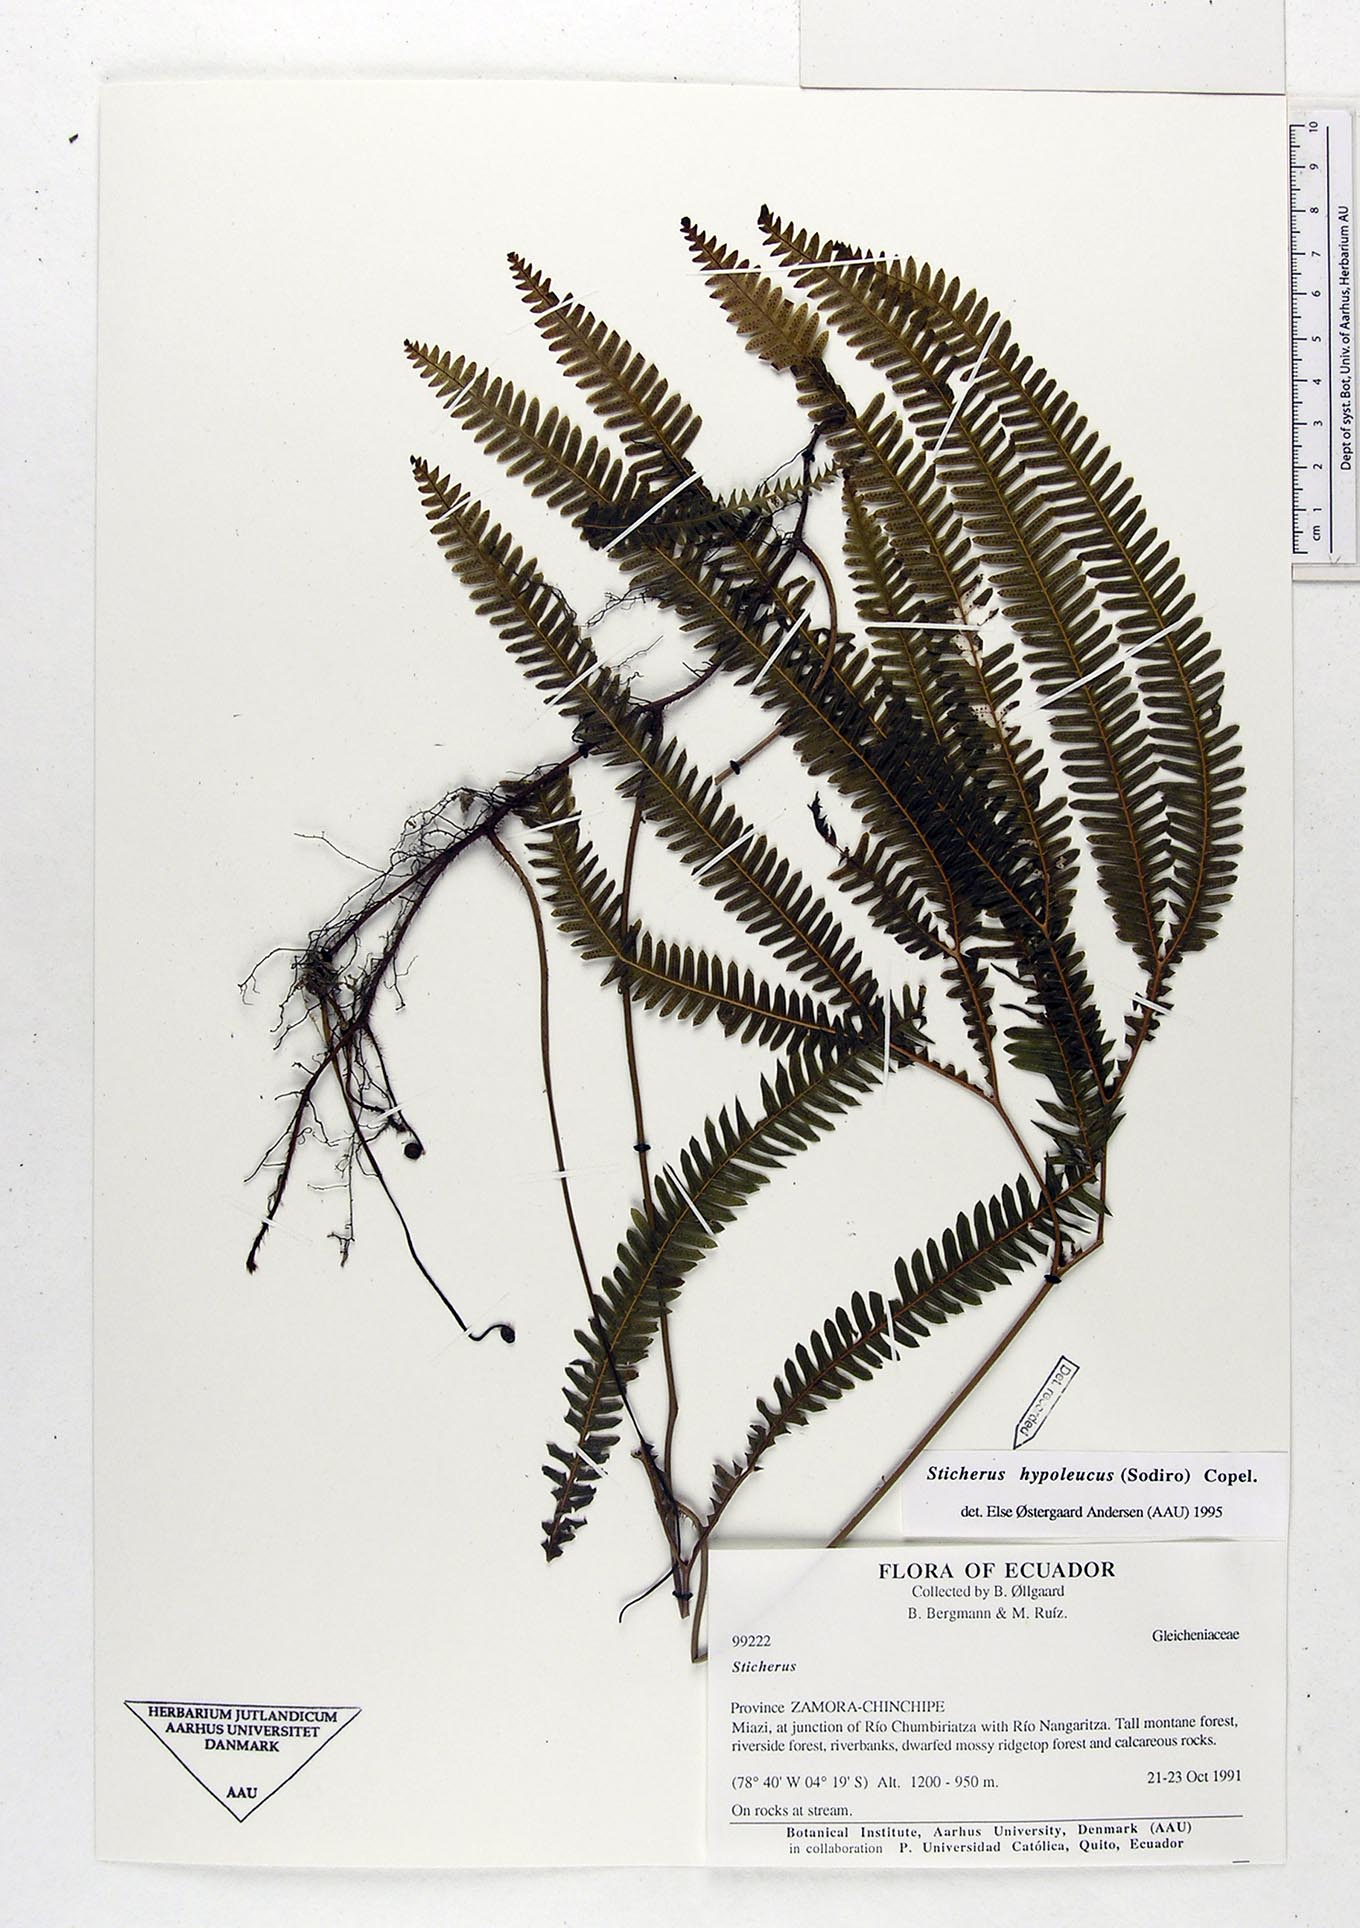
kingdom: Plantae
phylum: Tracheophyta
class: Polypodiopsida
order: Gleicheniales
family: Gleicheniaceae
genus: Sticherus
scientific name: Sticherus hypoleucus
